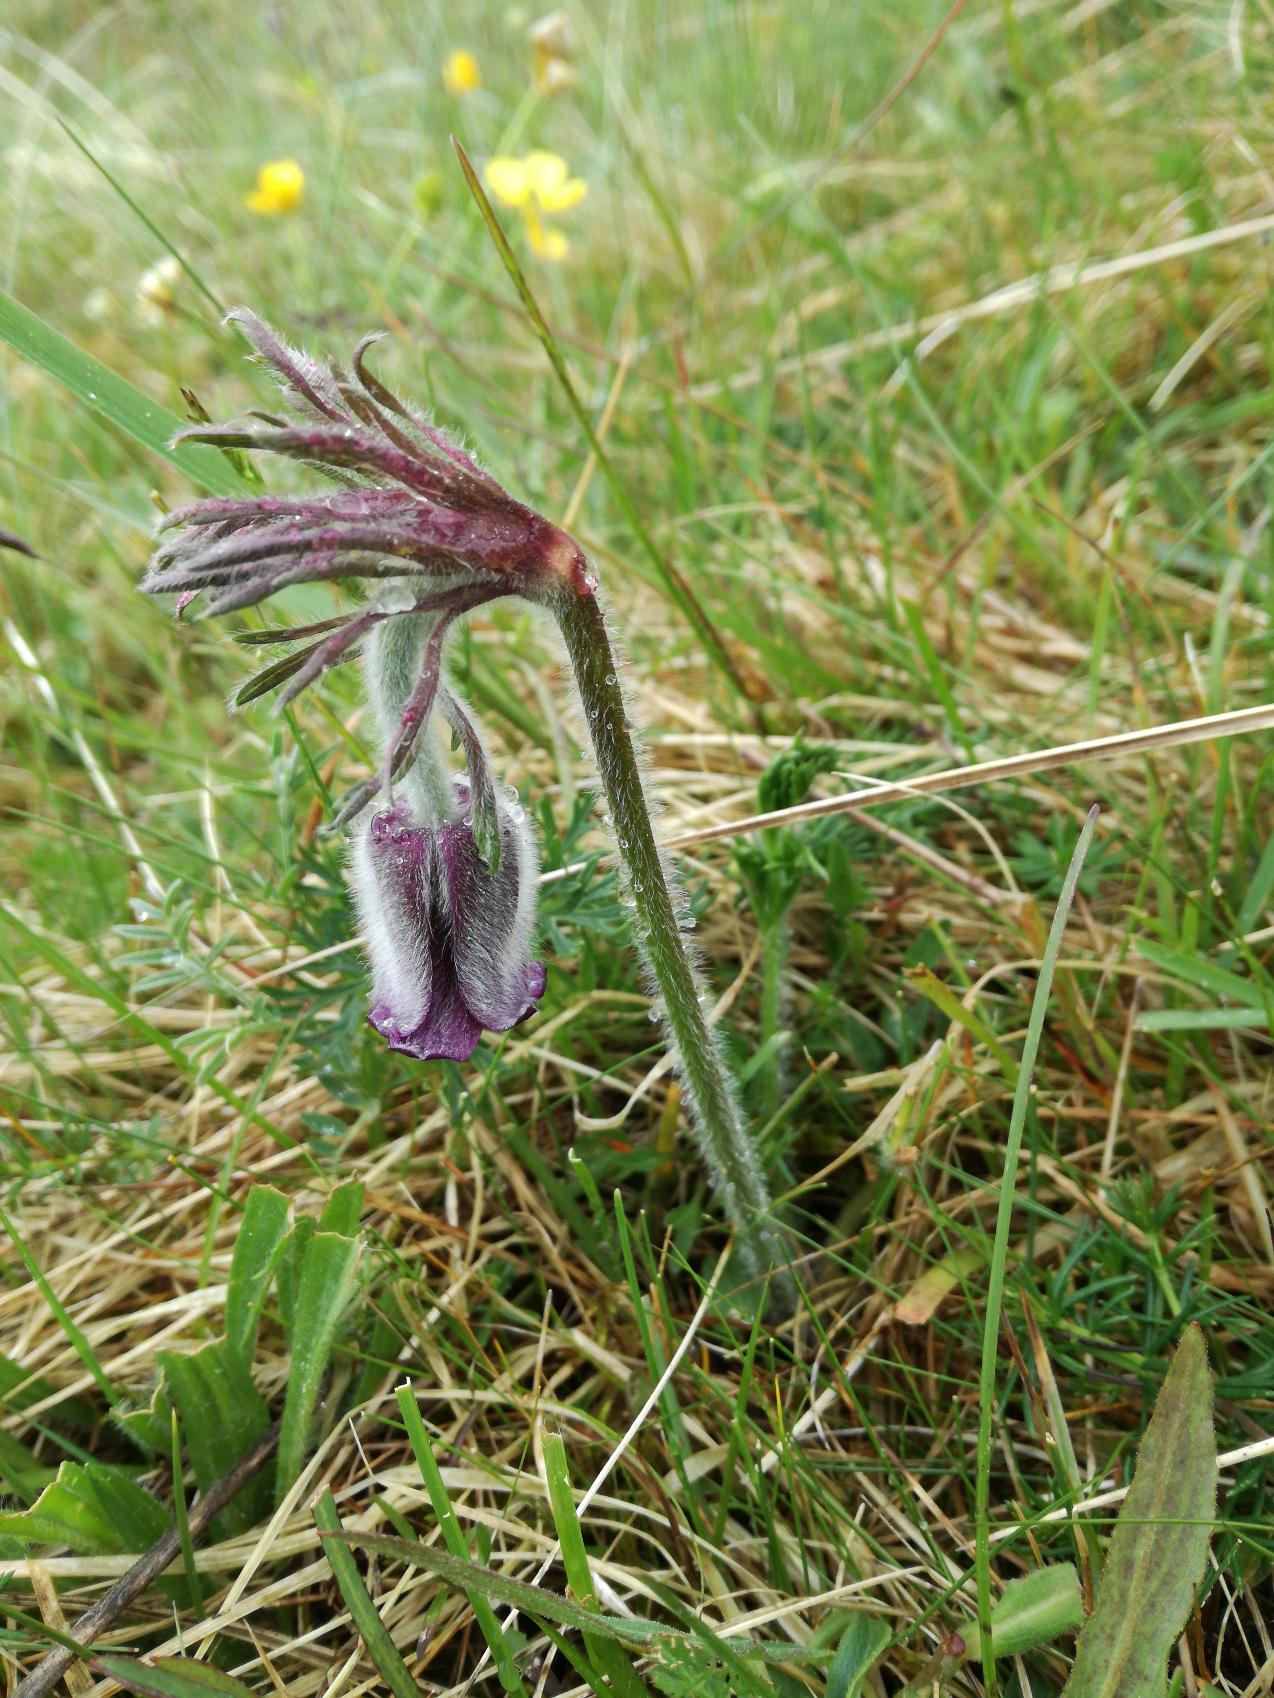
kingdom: Plantae
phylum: Tracheophyta
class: Magnoliopsida
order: Ranunculales
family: Ranunculaceae
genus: Pulsatilla
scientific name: Pulsatilla pratensis
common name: Nikkende kobjælde
